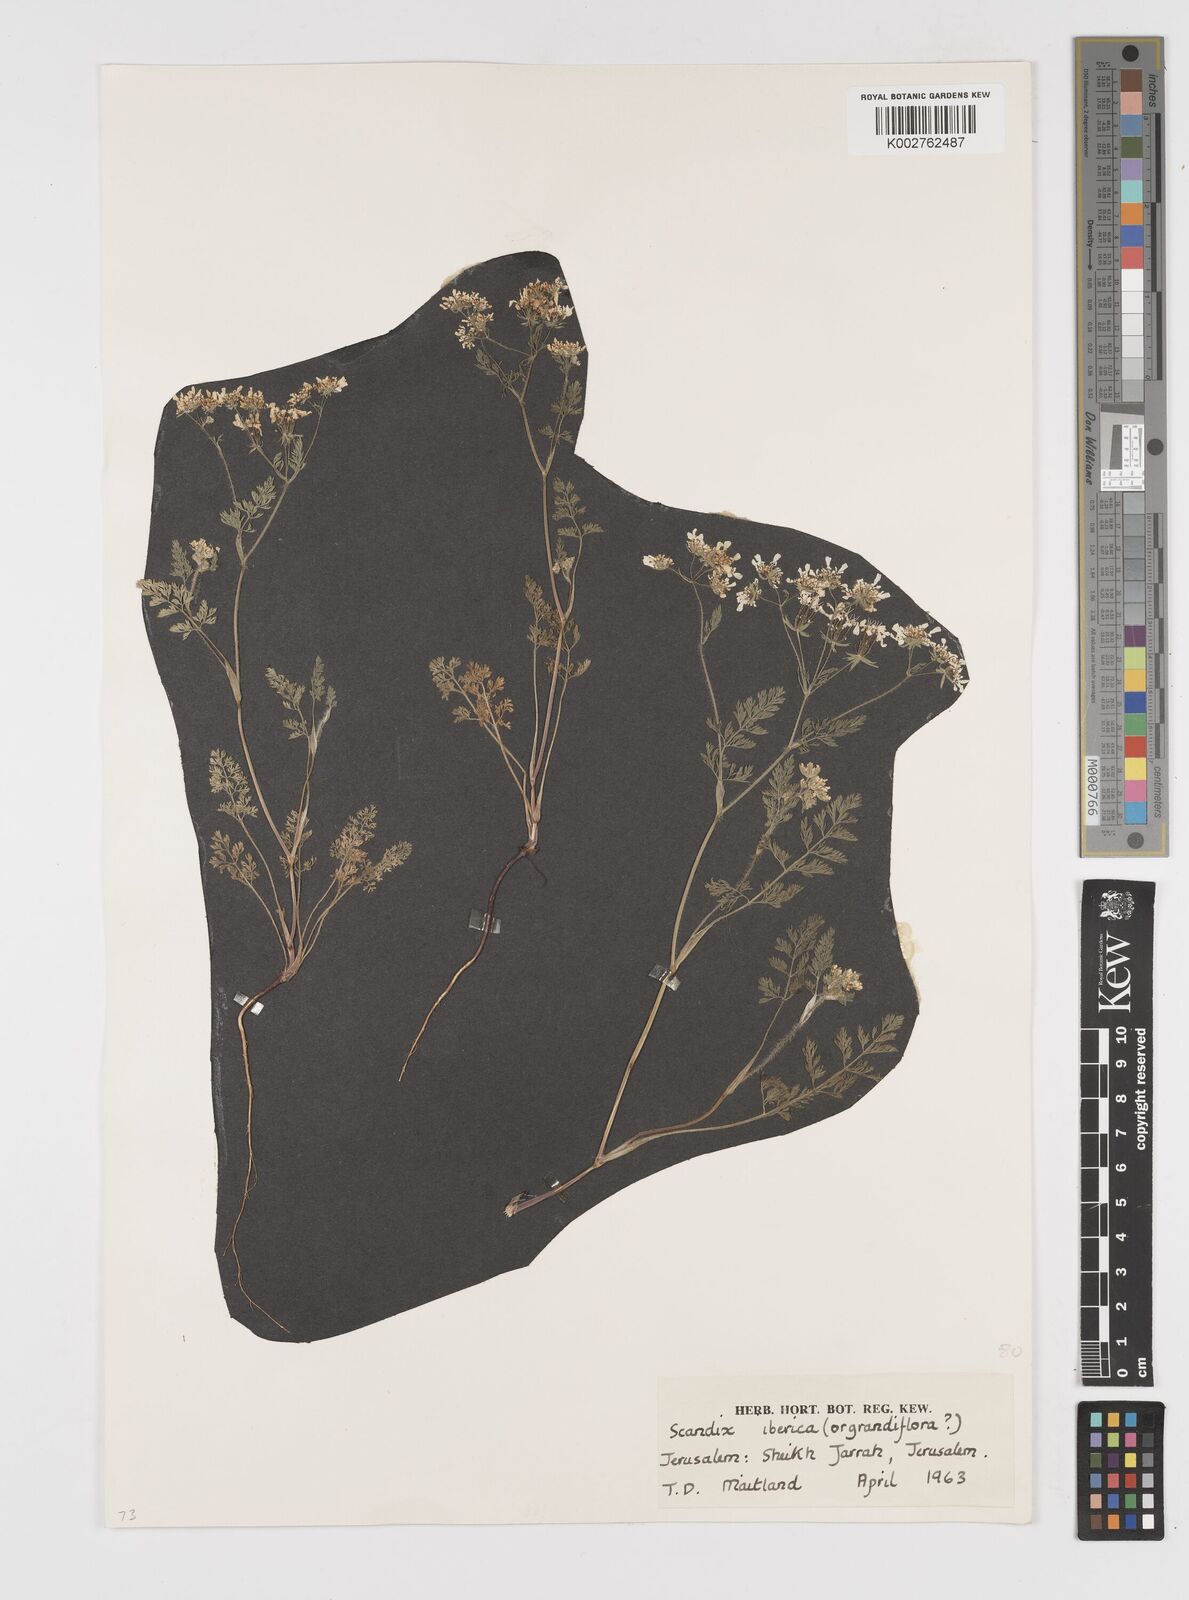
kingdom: Plantae
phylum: Tracheophyta
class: Magnoliopsida
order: Apiales
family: Apiaceae
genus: Scandix
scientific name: Scandix iberica
